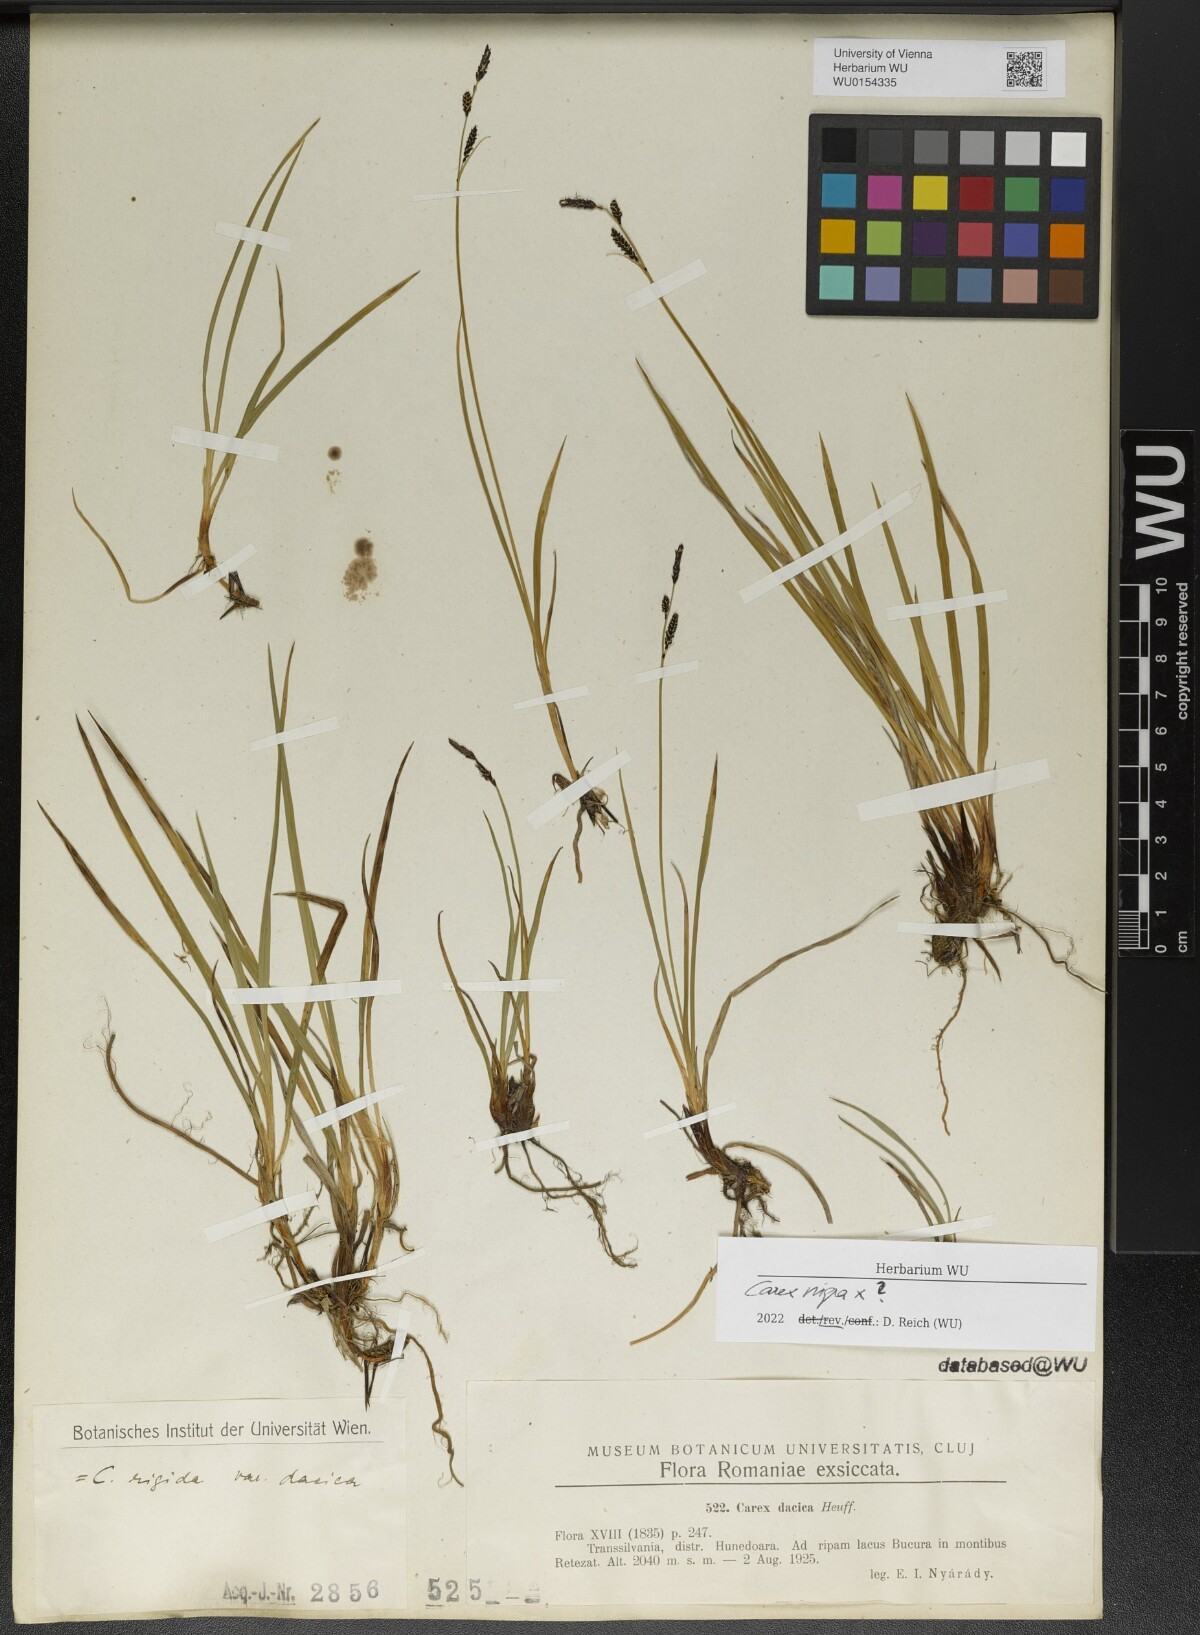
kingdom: Plantae
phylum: Tracheophyta
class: Liliopsida
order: Poales
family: Cyperaceae
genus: Carex
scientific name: Carex nigra
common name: Common sedge
